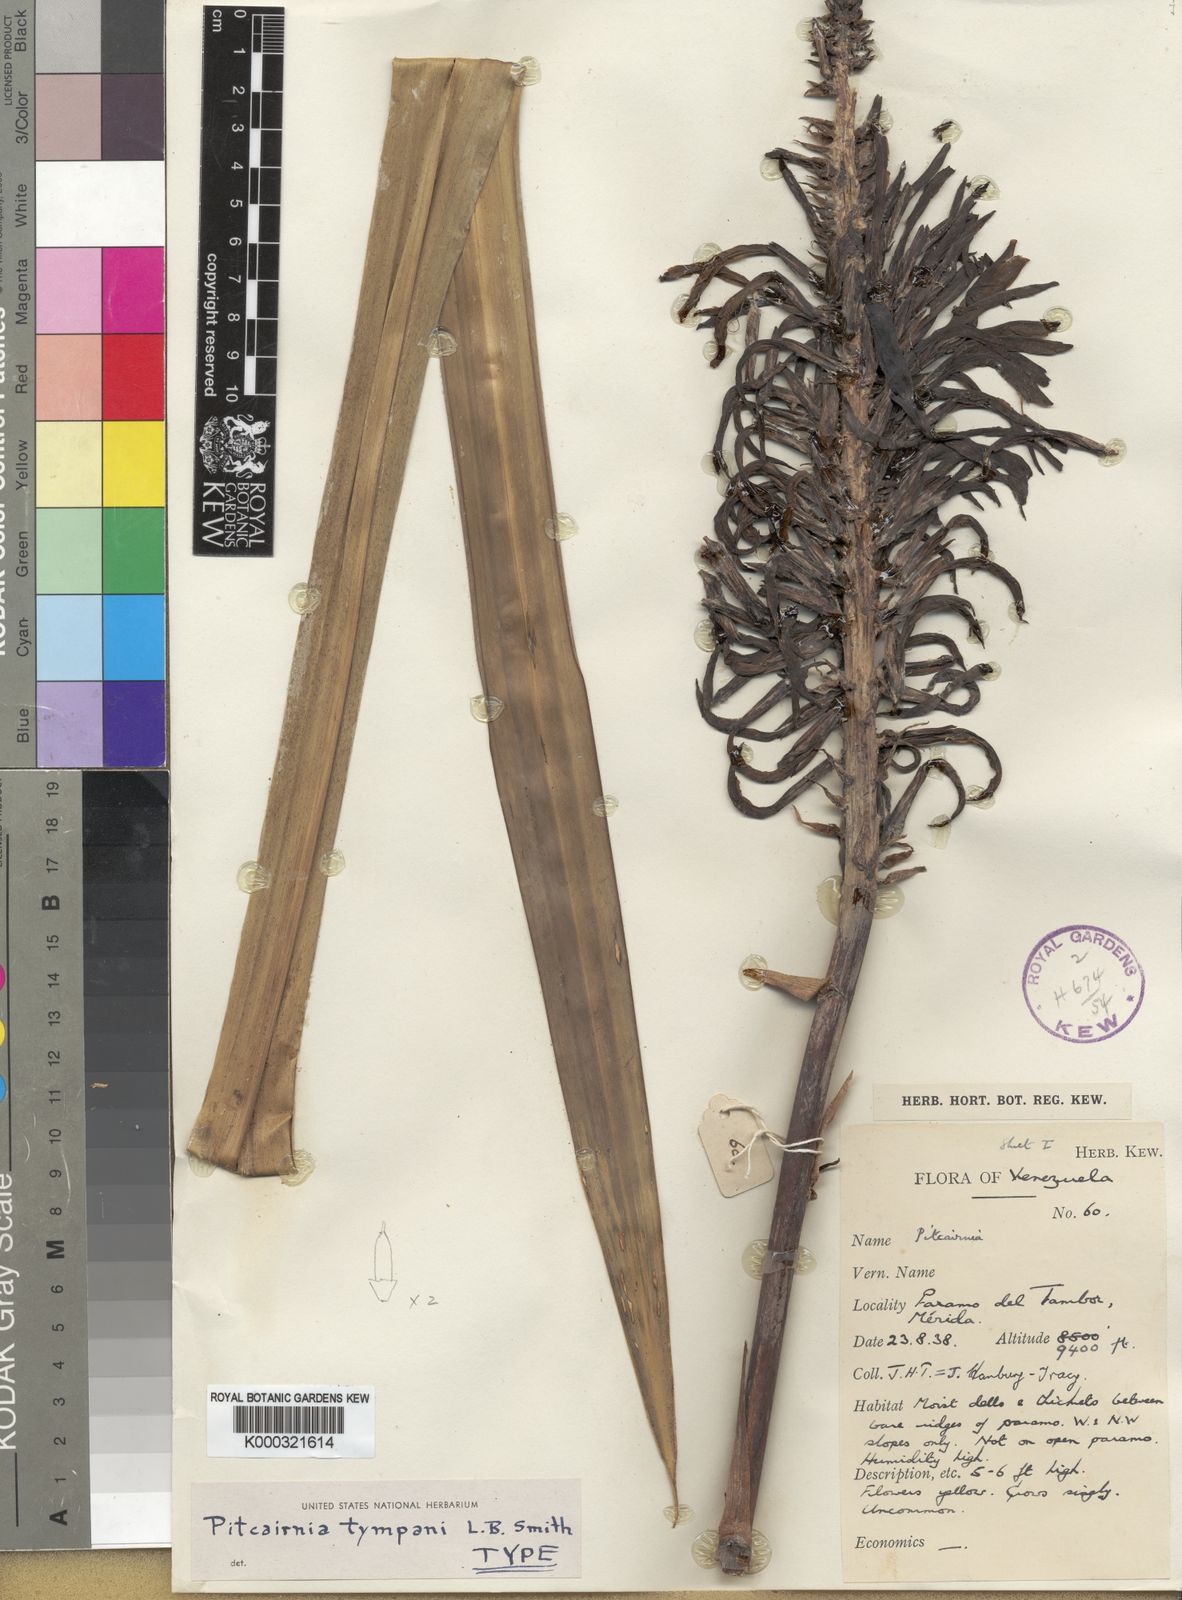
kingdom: Plantae
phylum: Tracheophyta
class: Liliopsida
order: Poales
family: Bromeliaceae
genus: Pitcairnia
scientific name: Pitcairnia tympani
